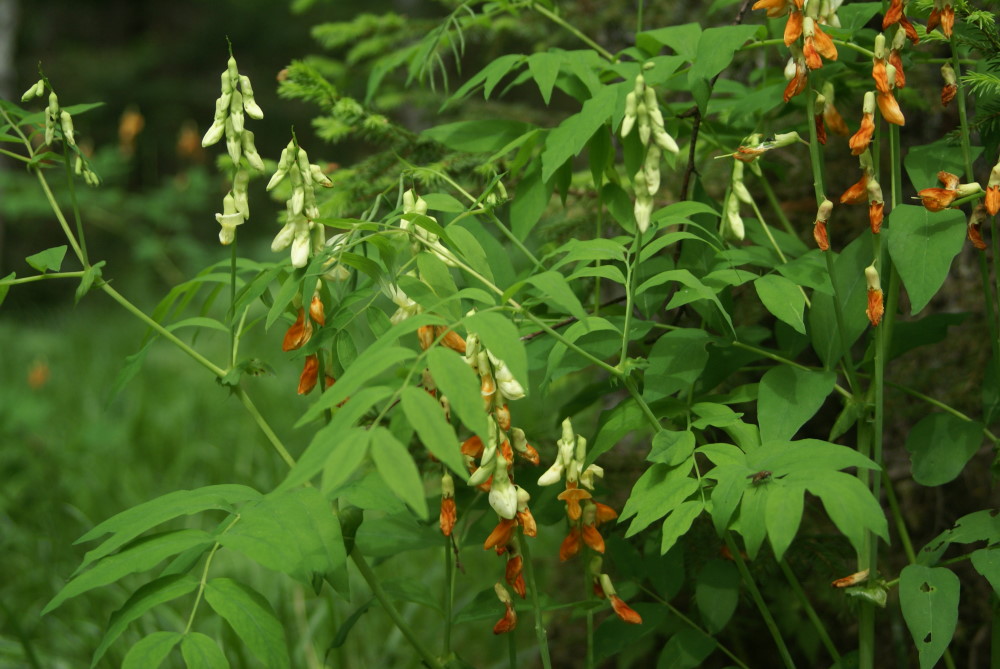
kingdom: Plantae
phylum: Tracheophyta
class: Magnoliopsida
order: Fabales
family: Fabaceae
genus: Lathyrus
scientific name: Lathyrus gmelinii
